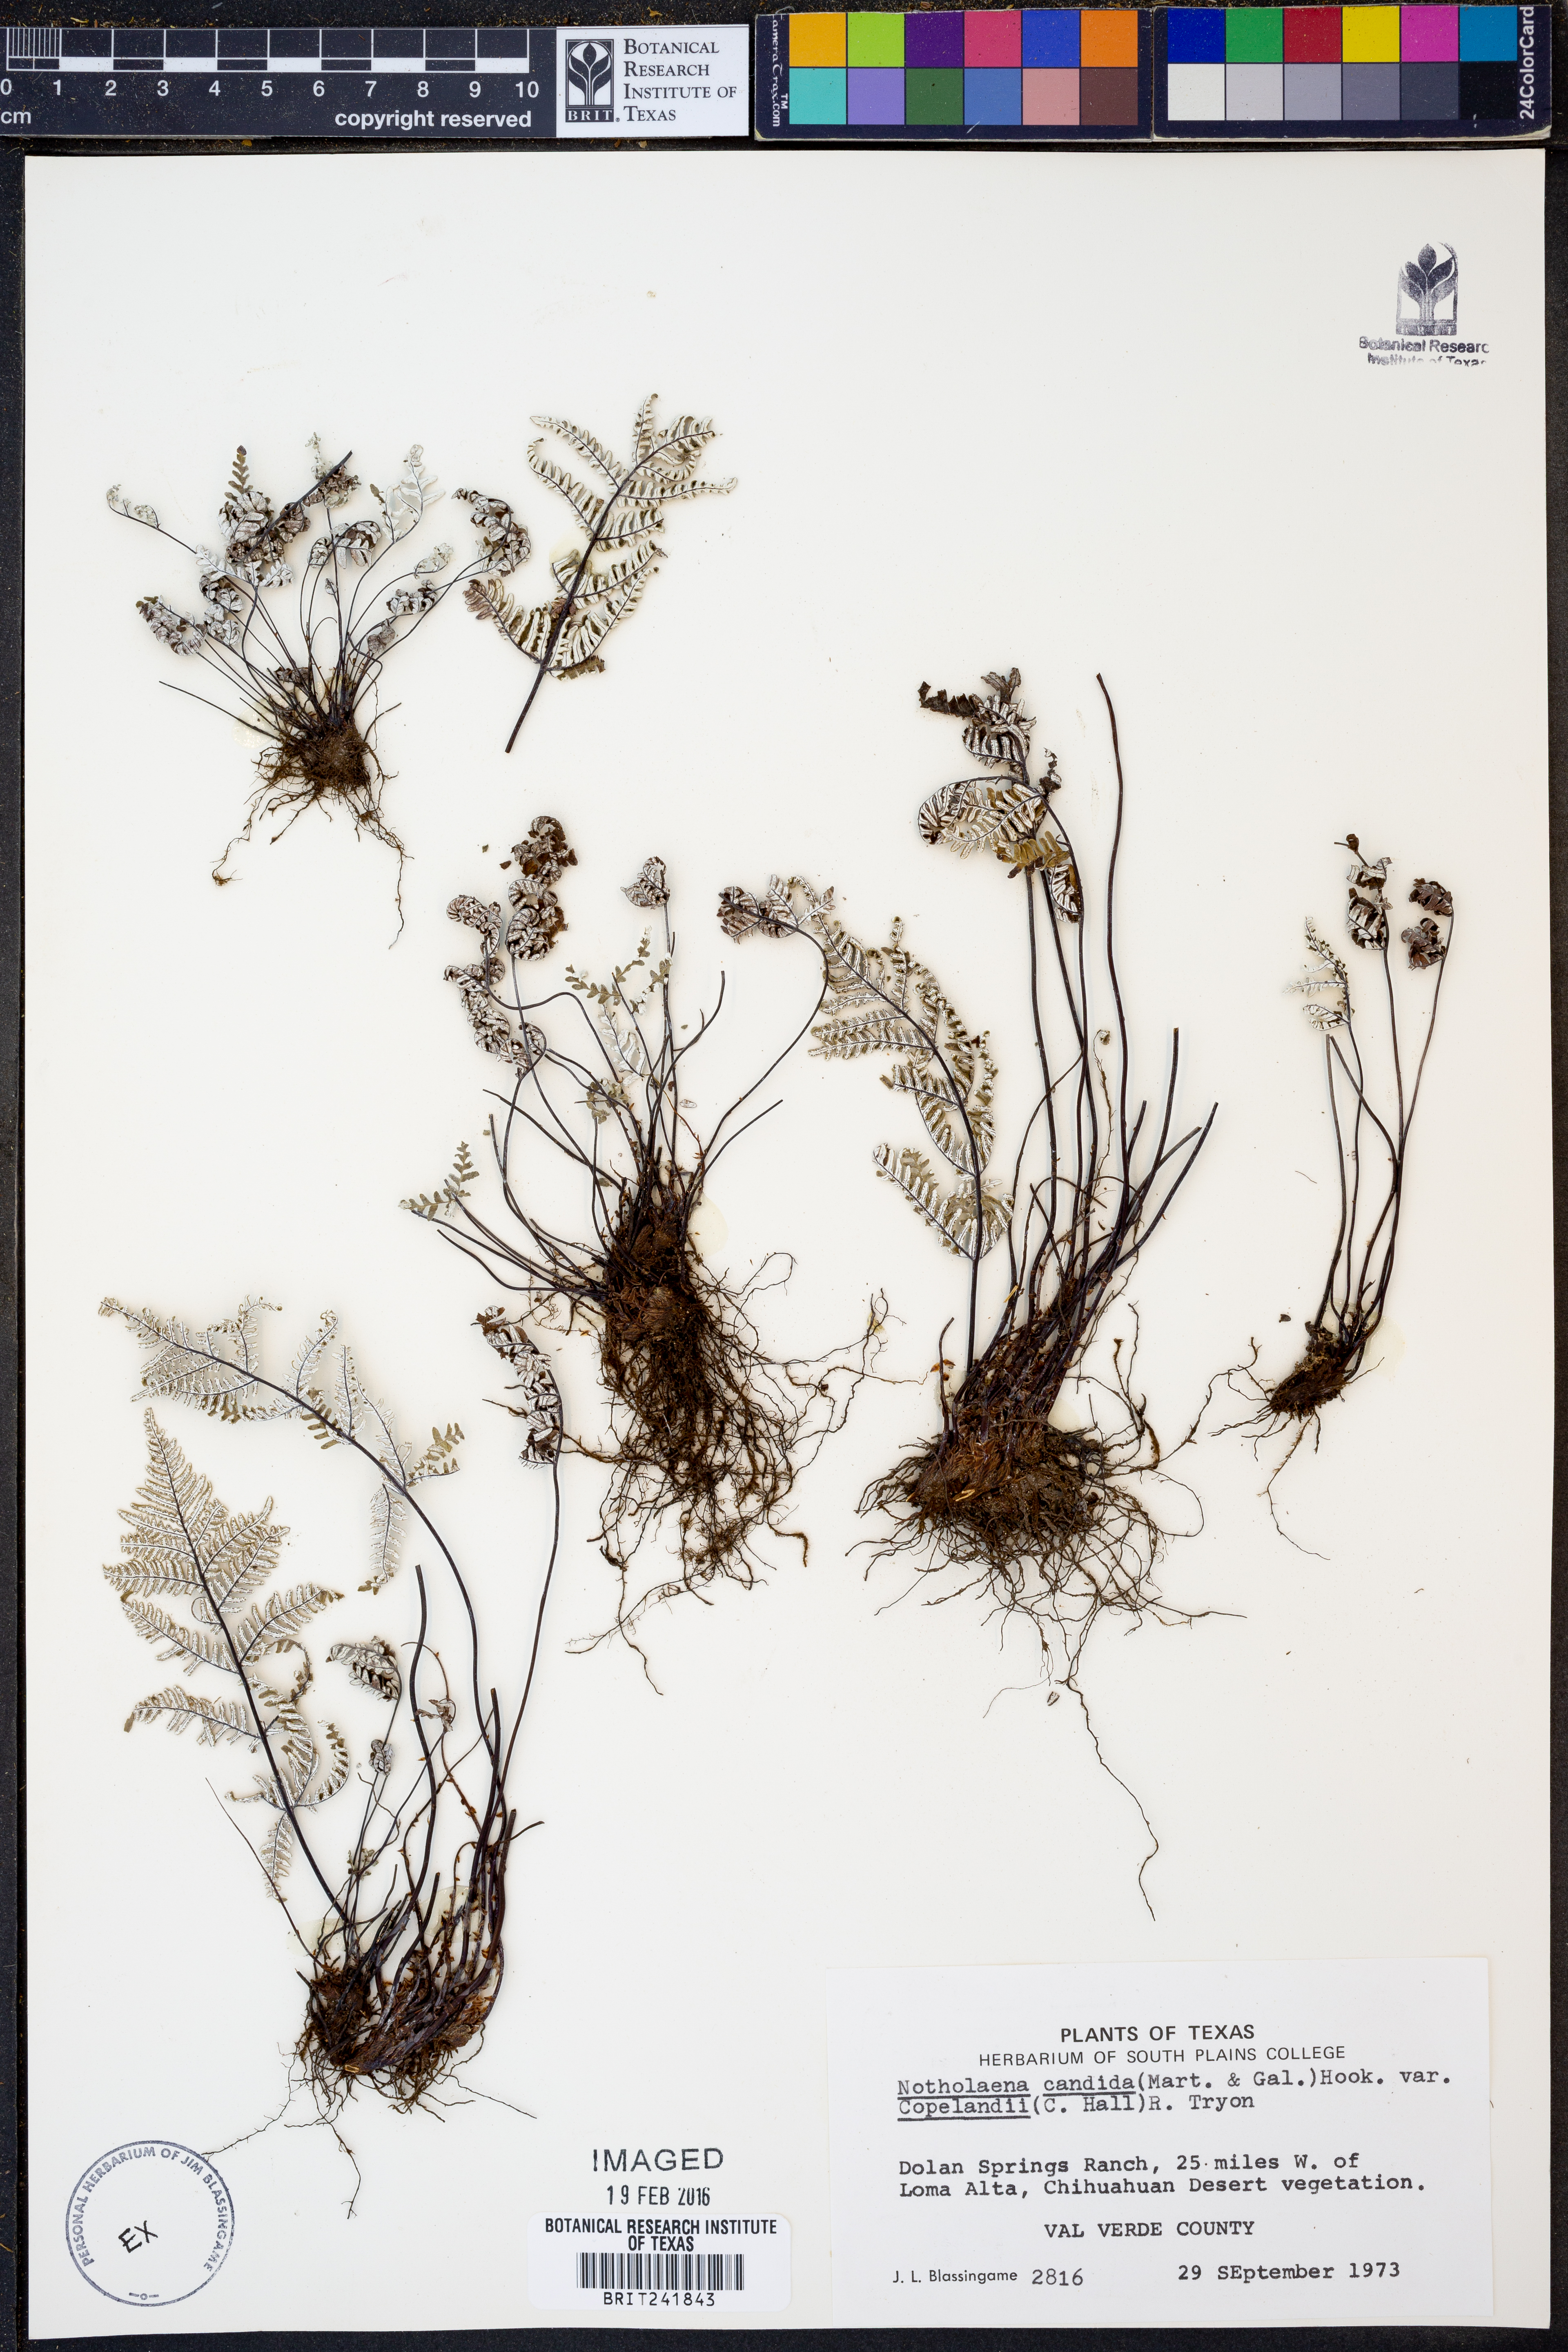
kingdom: Plantae
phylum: Tracheophyta
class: Polypodiopsida
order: Polypodiales
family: Pteridaceae
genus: Notholaena
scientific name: Notholaena candida
